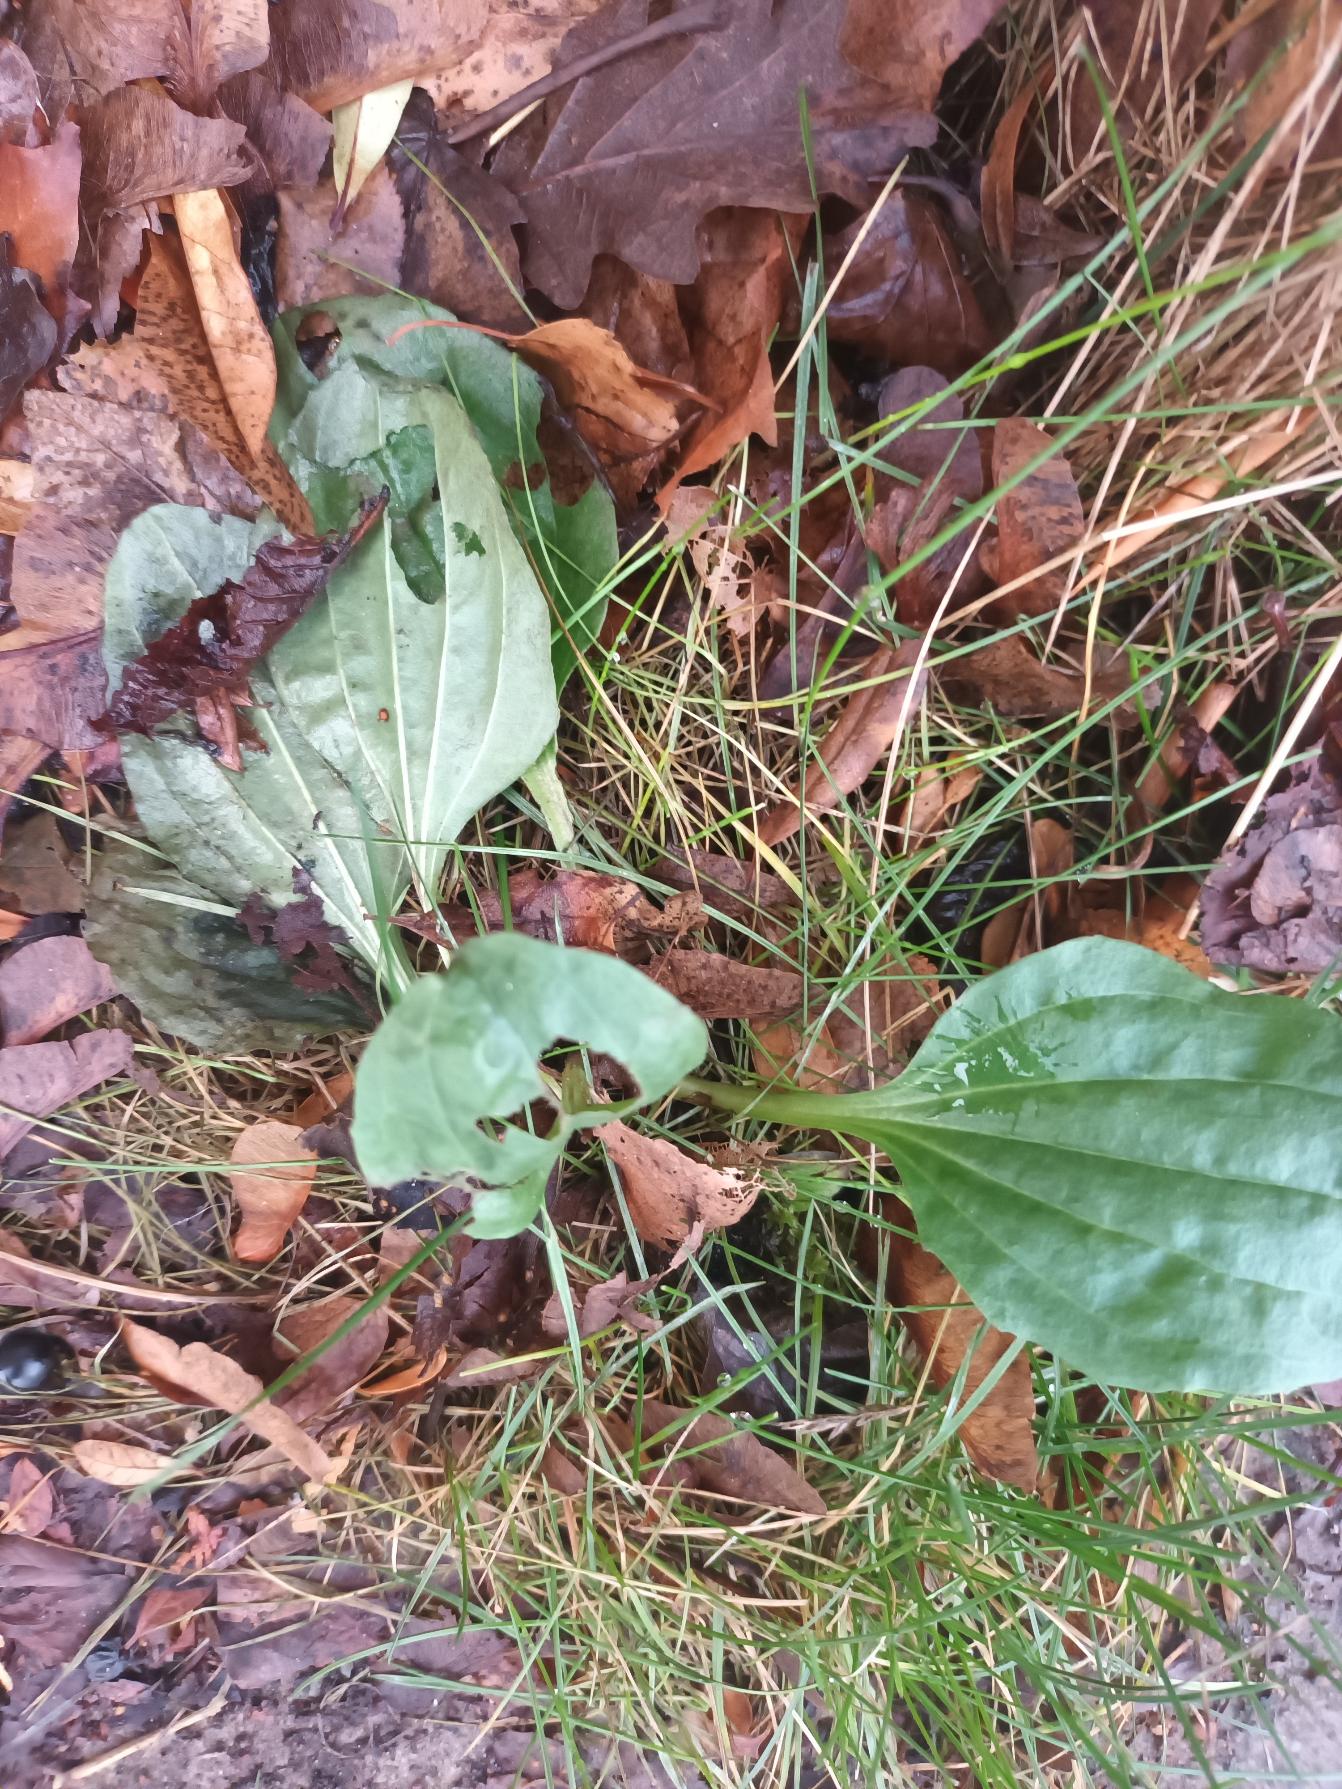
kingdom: Plantae
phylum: Tracheophyta
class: Magnoliopsida
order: Lamiales
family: Plantaginaceae
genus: Plantago
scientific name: Plantago major
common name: Glat vejbred
